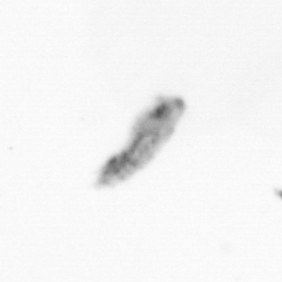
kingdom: Animalia
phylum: Arthropoda
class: Copepoda
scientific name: Copepoda
